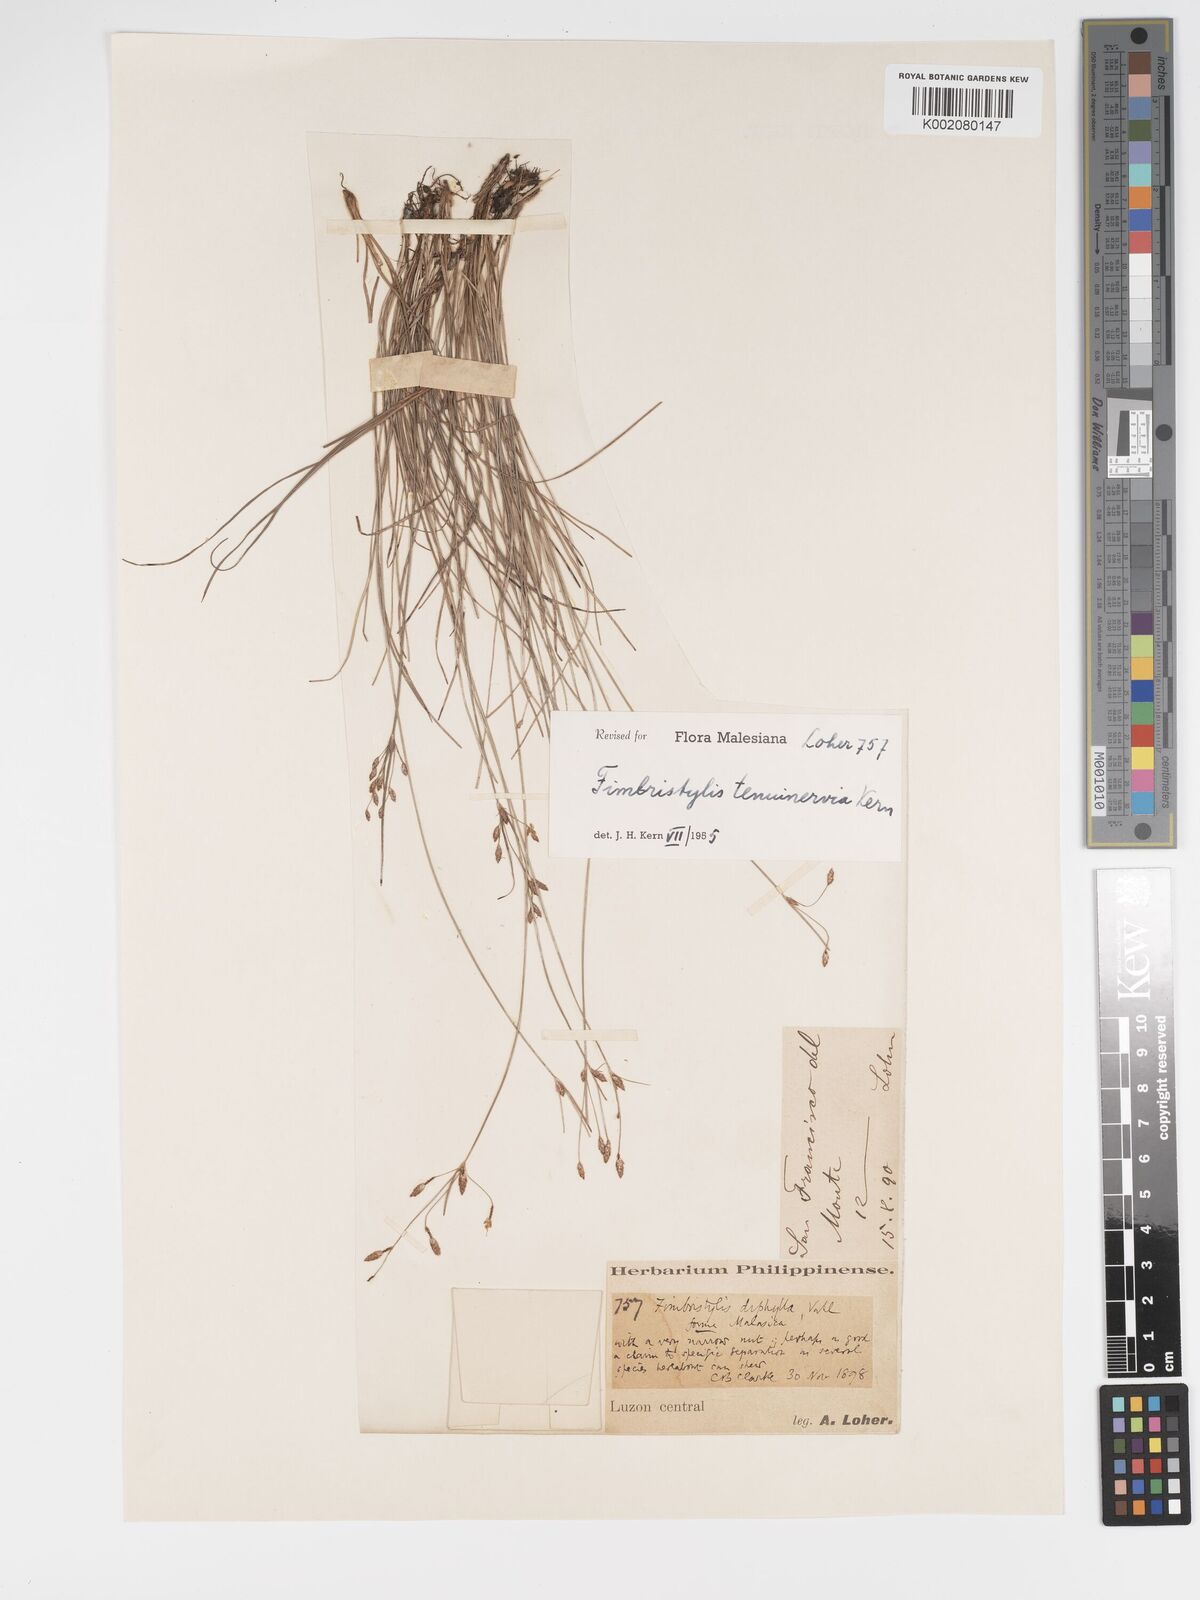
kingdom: Plantae
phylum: Tracheophyta
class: Liliopsida
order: Poales
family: Cyperaceae
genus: Fimbristylis
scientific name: Fimbristylis tenuinervia
